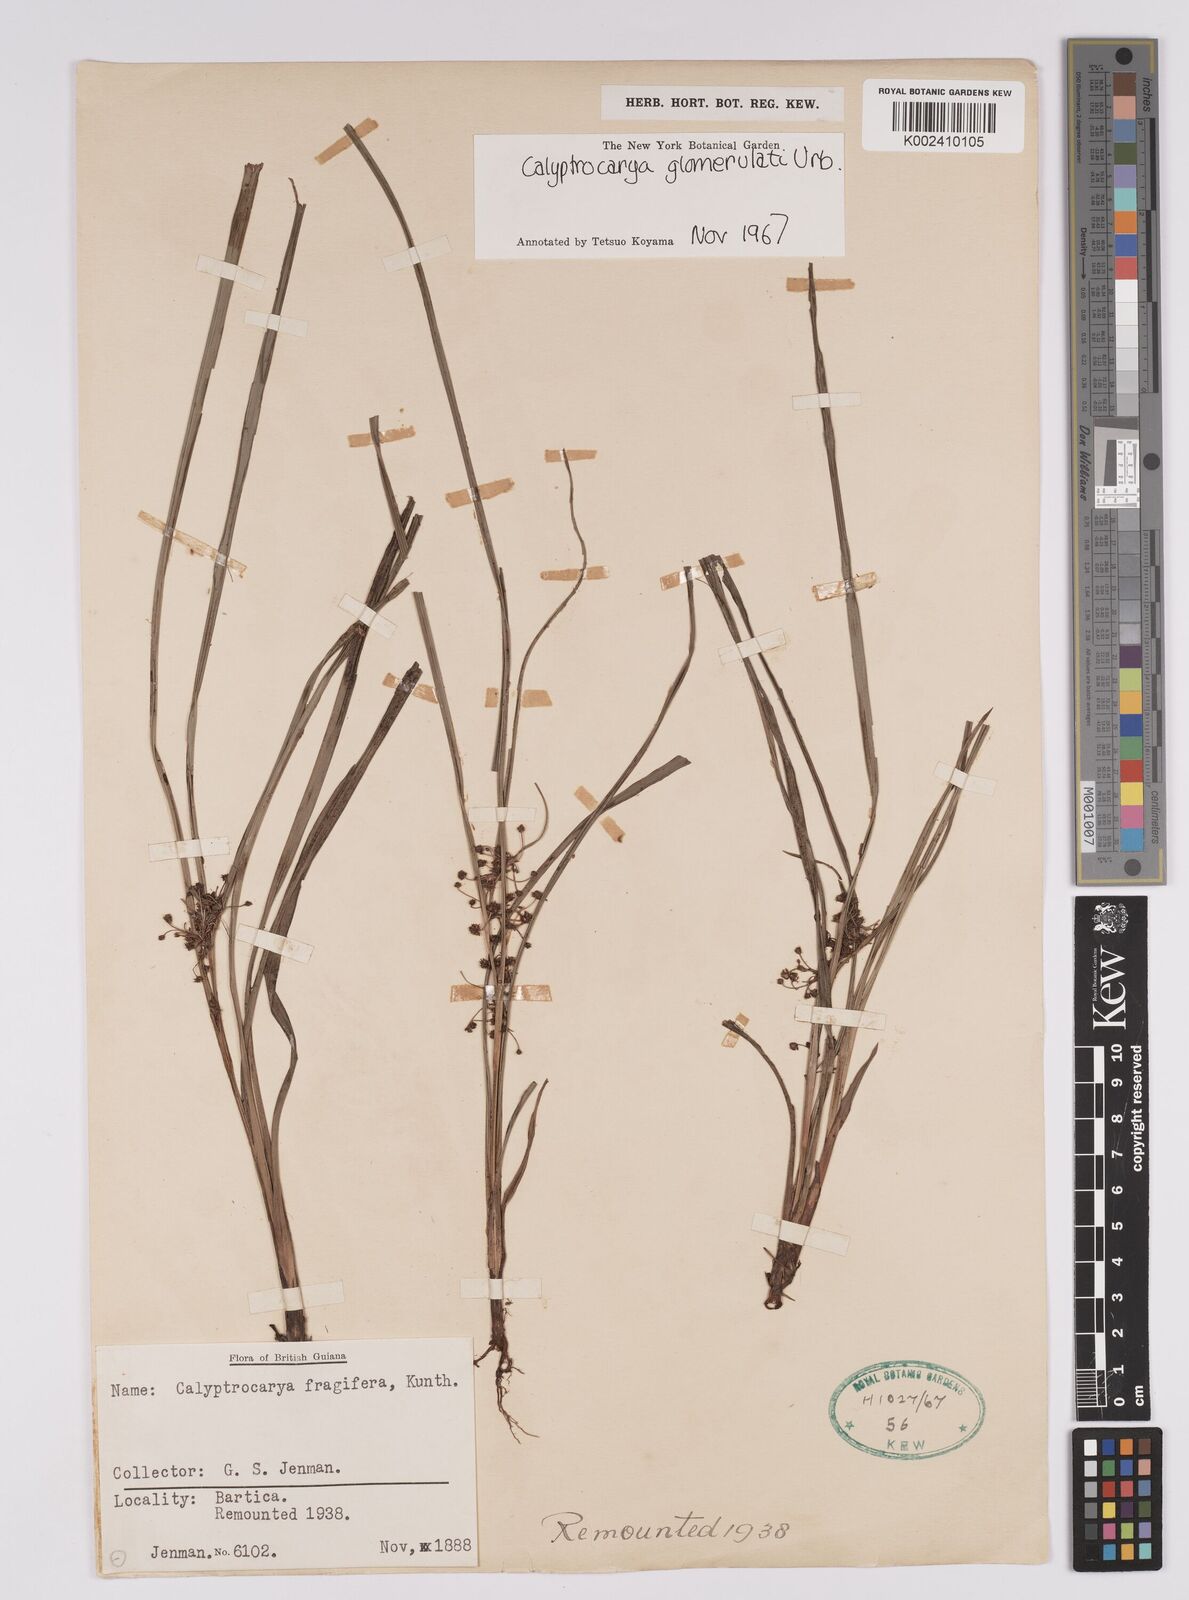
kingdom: Plantae
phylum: Tracheophyta
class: Liliopsida
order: Poales
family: Cyperaceae
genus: Calyptrocarya
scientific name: Calyptrocarya glomerulata
